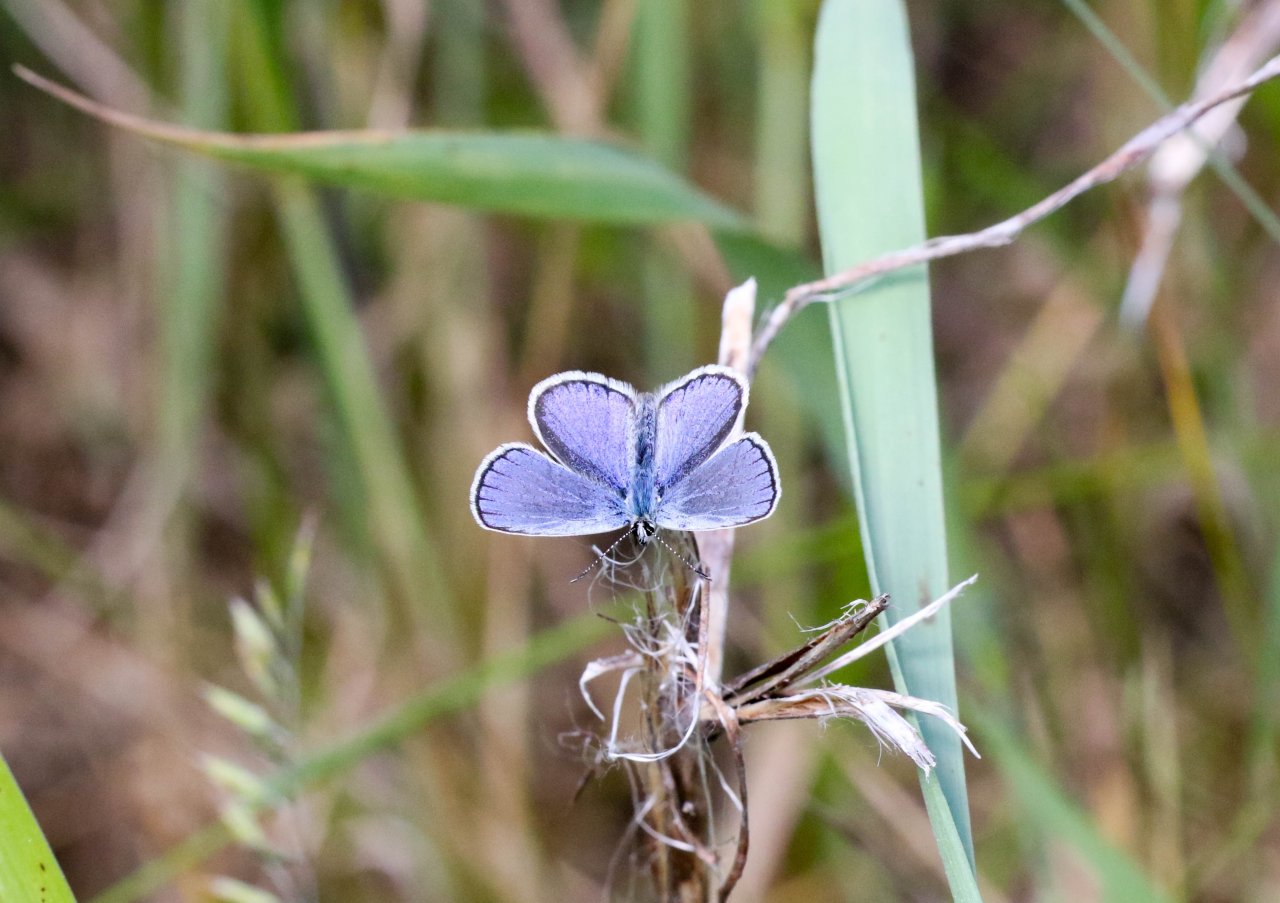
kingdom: Animalia
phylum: Arthropoda
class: Insecta
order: Lepidoptera
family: Lycaenidae
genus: Plebejus
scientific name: Plebejus samuelis
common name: Karner Blue
